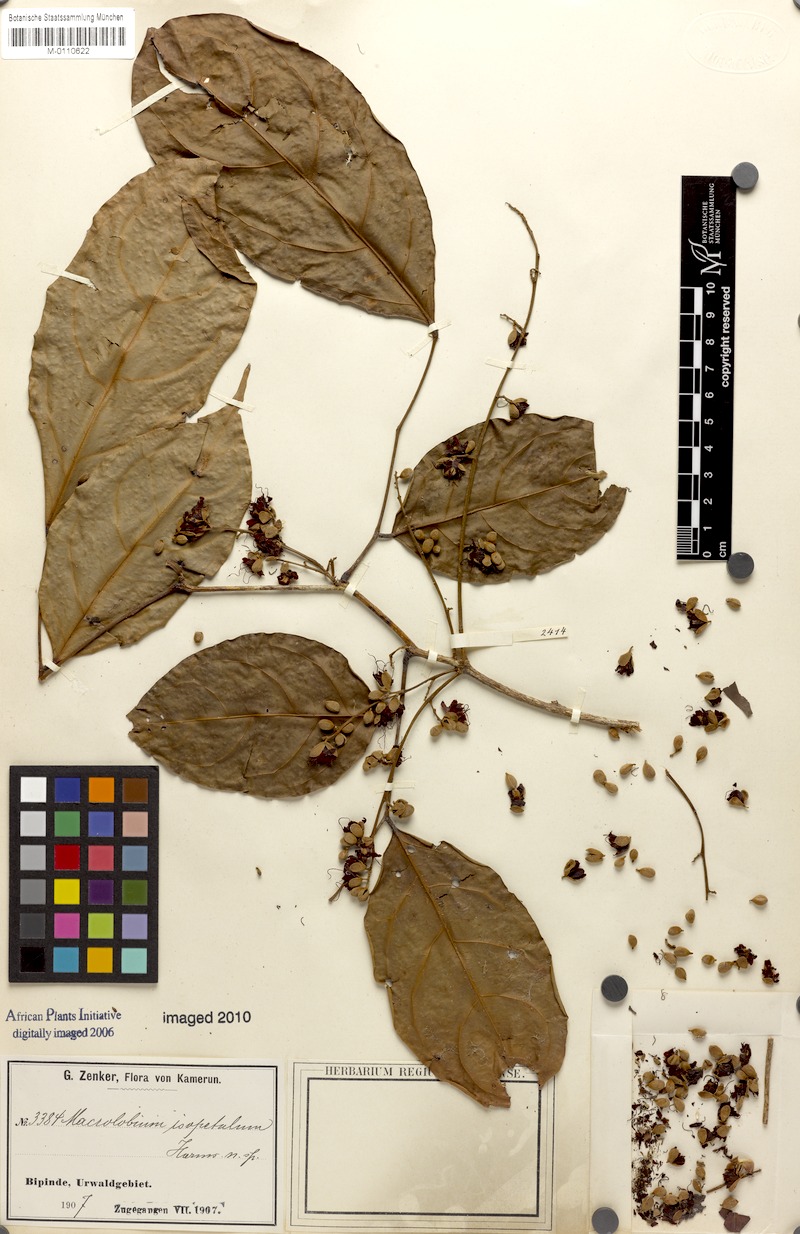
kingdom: Plantae
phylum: Tracheophyta
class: Magnoliopsida
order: Fabales
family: Fabaceae
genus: Englerodendron
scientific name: Englerodendron isopetalum
